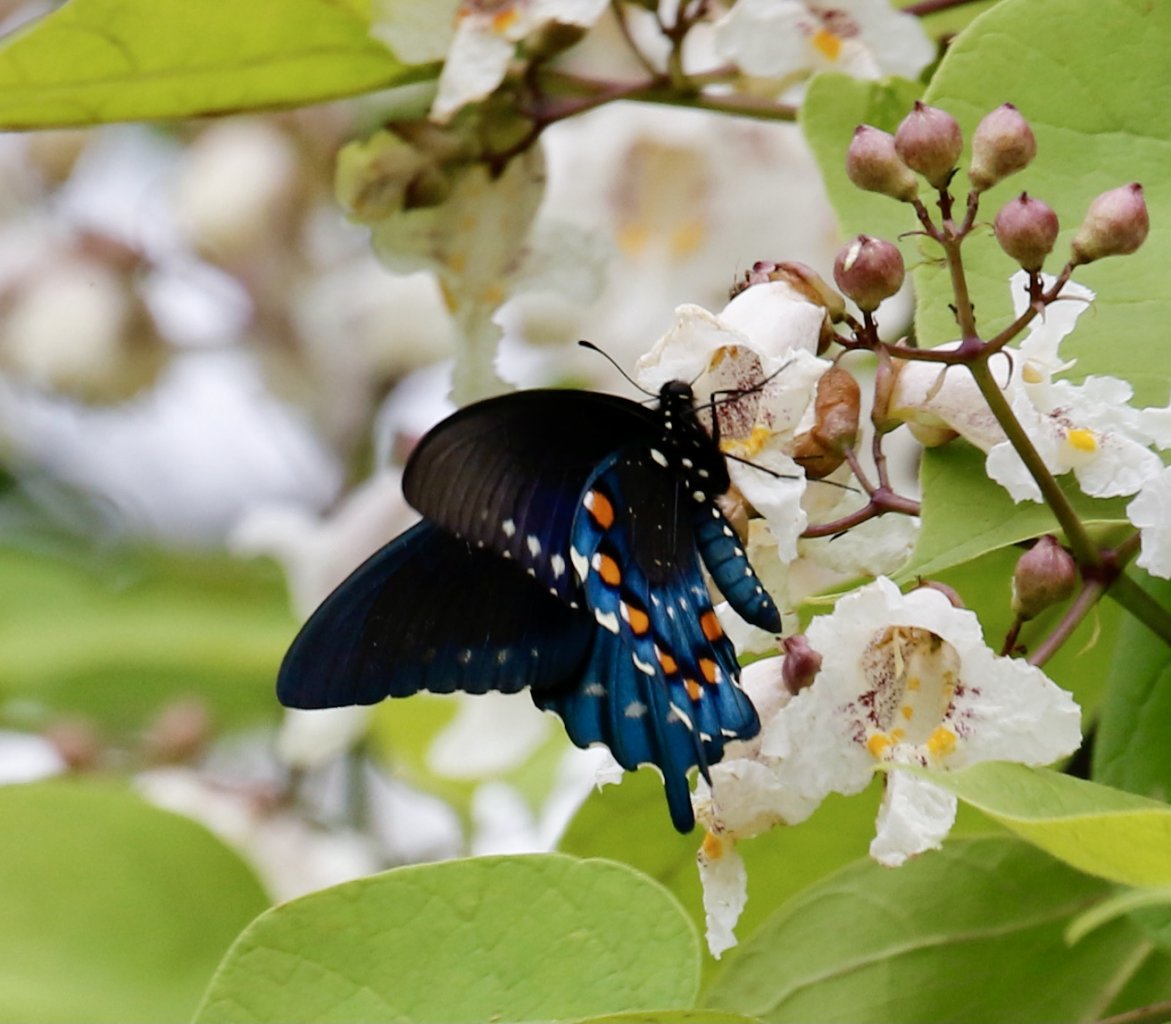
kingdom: Animalia
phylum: Arthropoda
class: Insecta
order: Lepidoptera
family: Papilionidae
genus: Battus
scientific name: Battus philenor
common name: Pipevine Swallowtail
